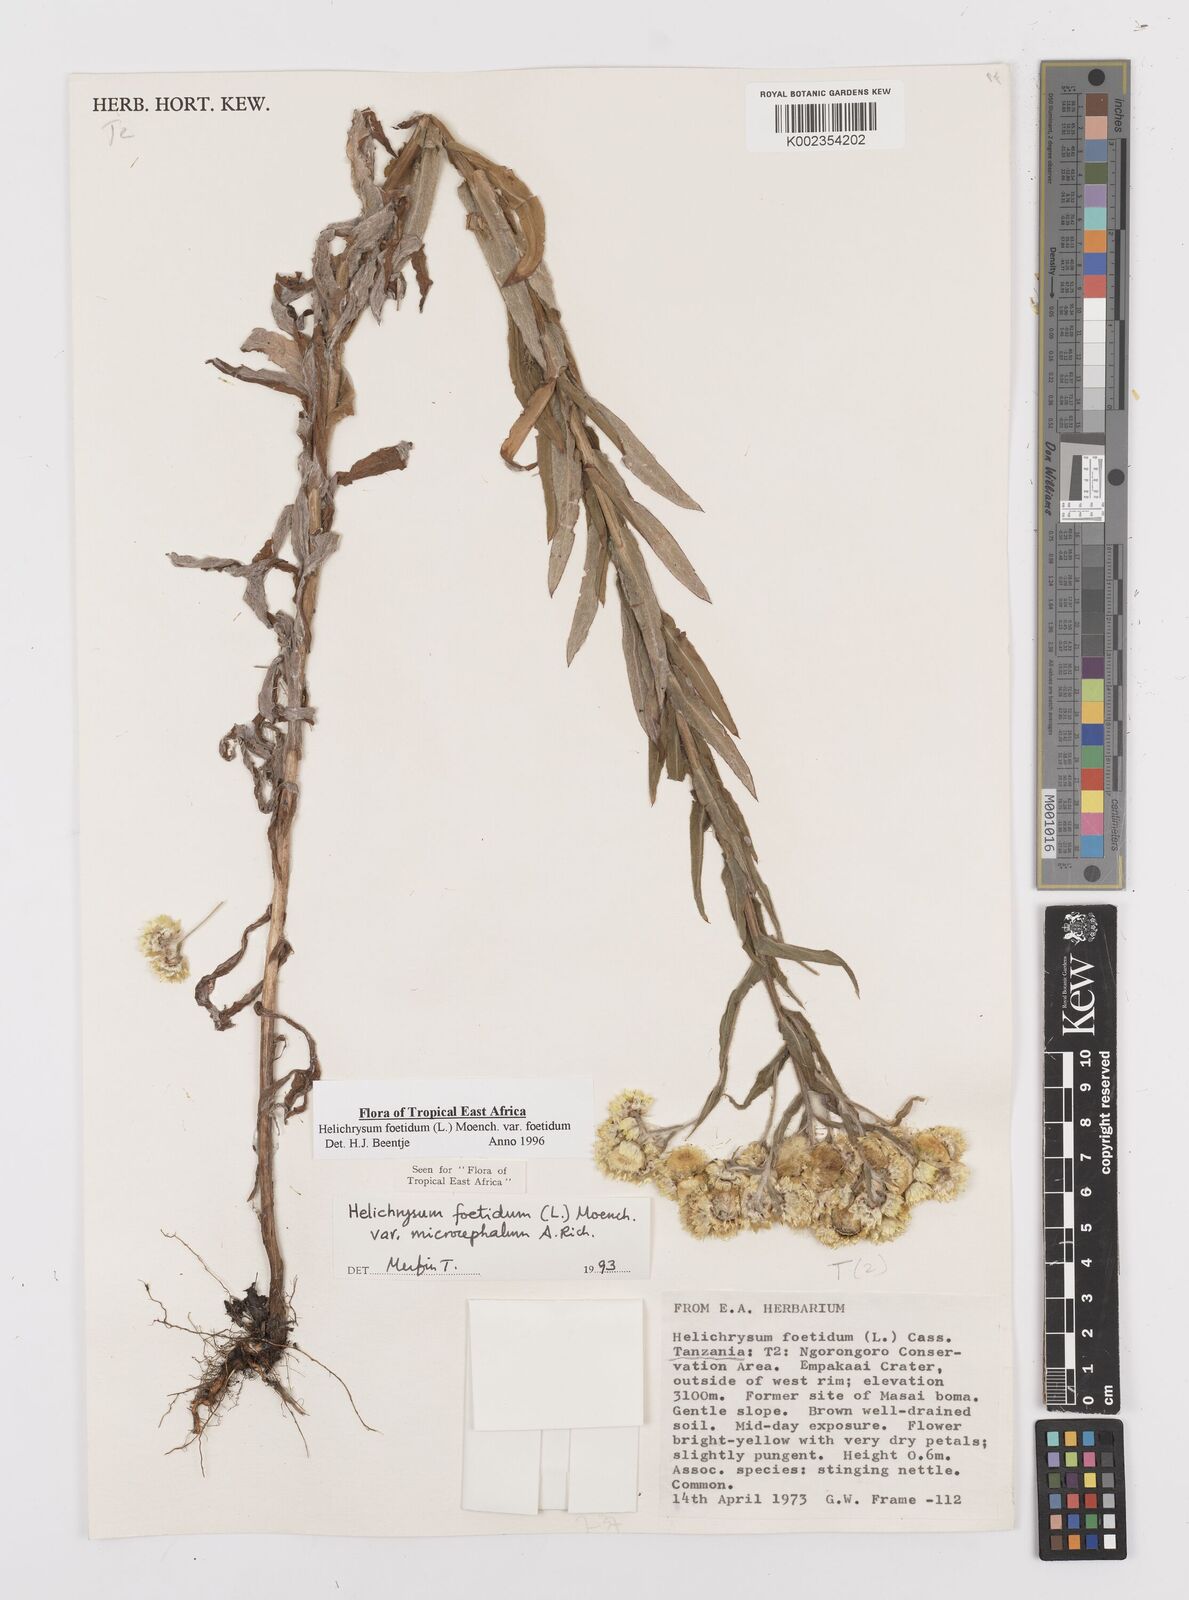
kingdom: Plantae
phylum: Tracheophyta
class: Magnoliopsida
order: Asterales
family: Asteraceae
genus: Helichrysum
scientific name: Helichrysum foetidum
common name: Stinking everlasting
